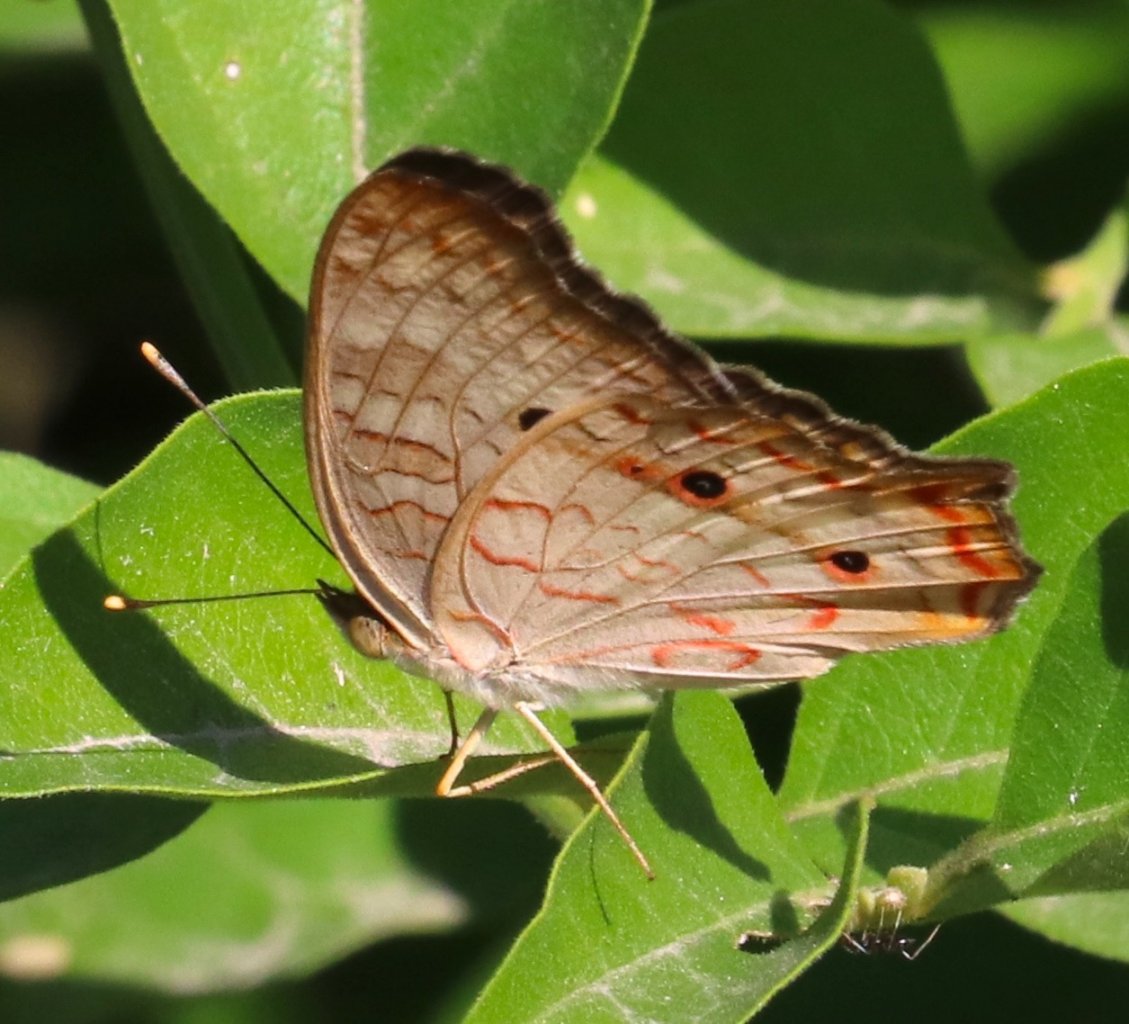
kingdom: Animalia
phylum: Arthropoda
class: Insecta
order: Lepidoptera
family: Nymphalidae
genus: Anartia
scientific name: Anartia jatrophae
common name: White Peacock
